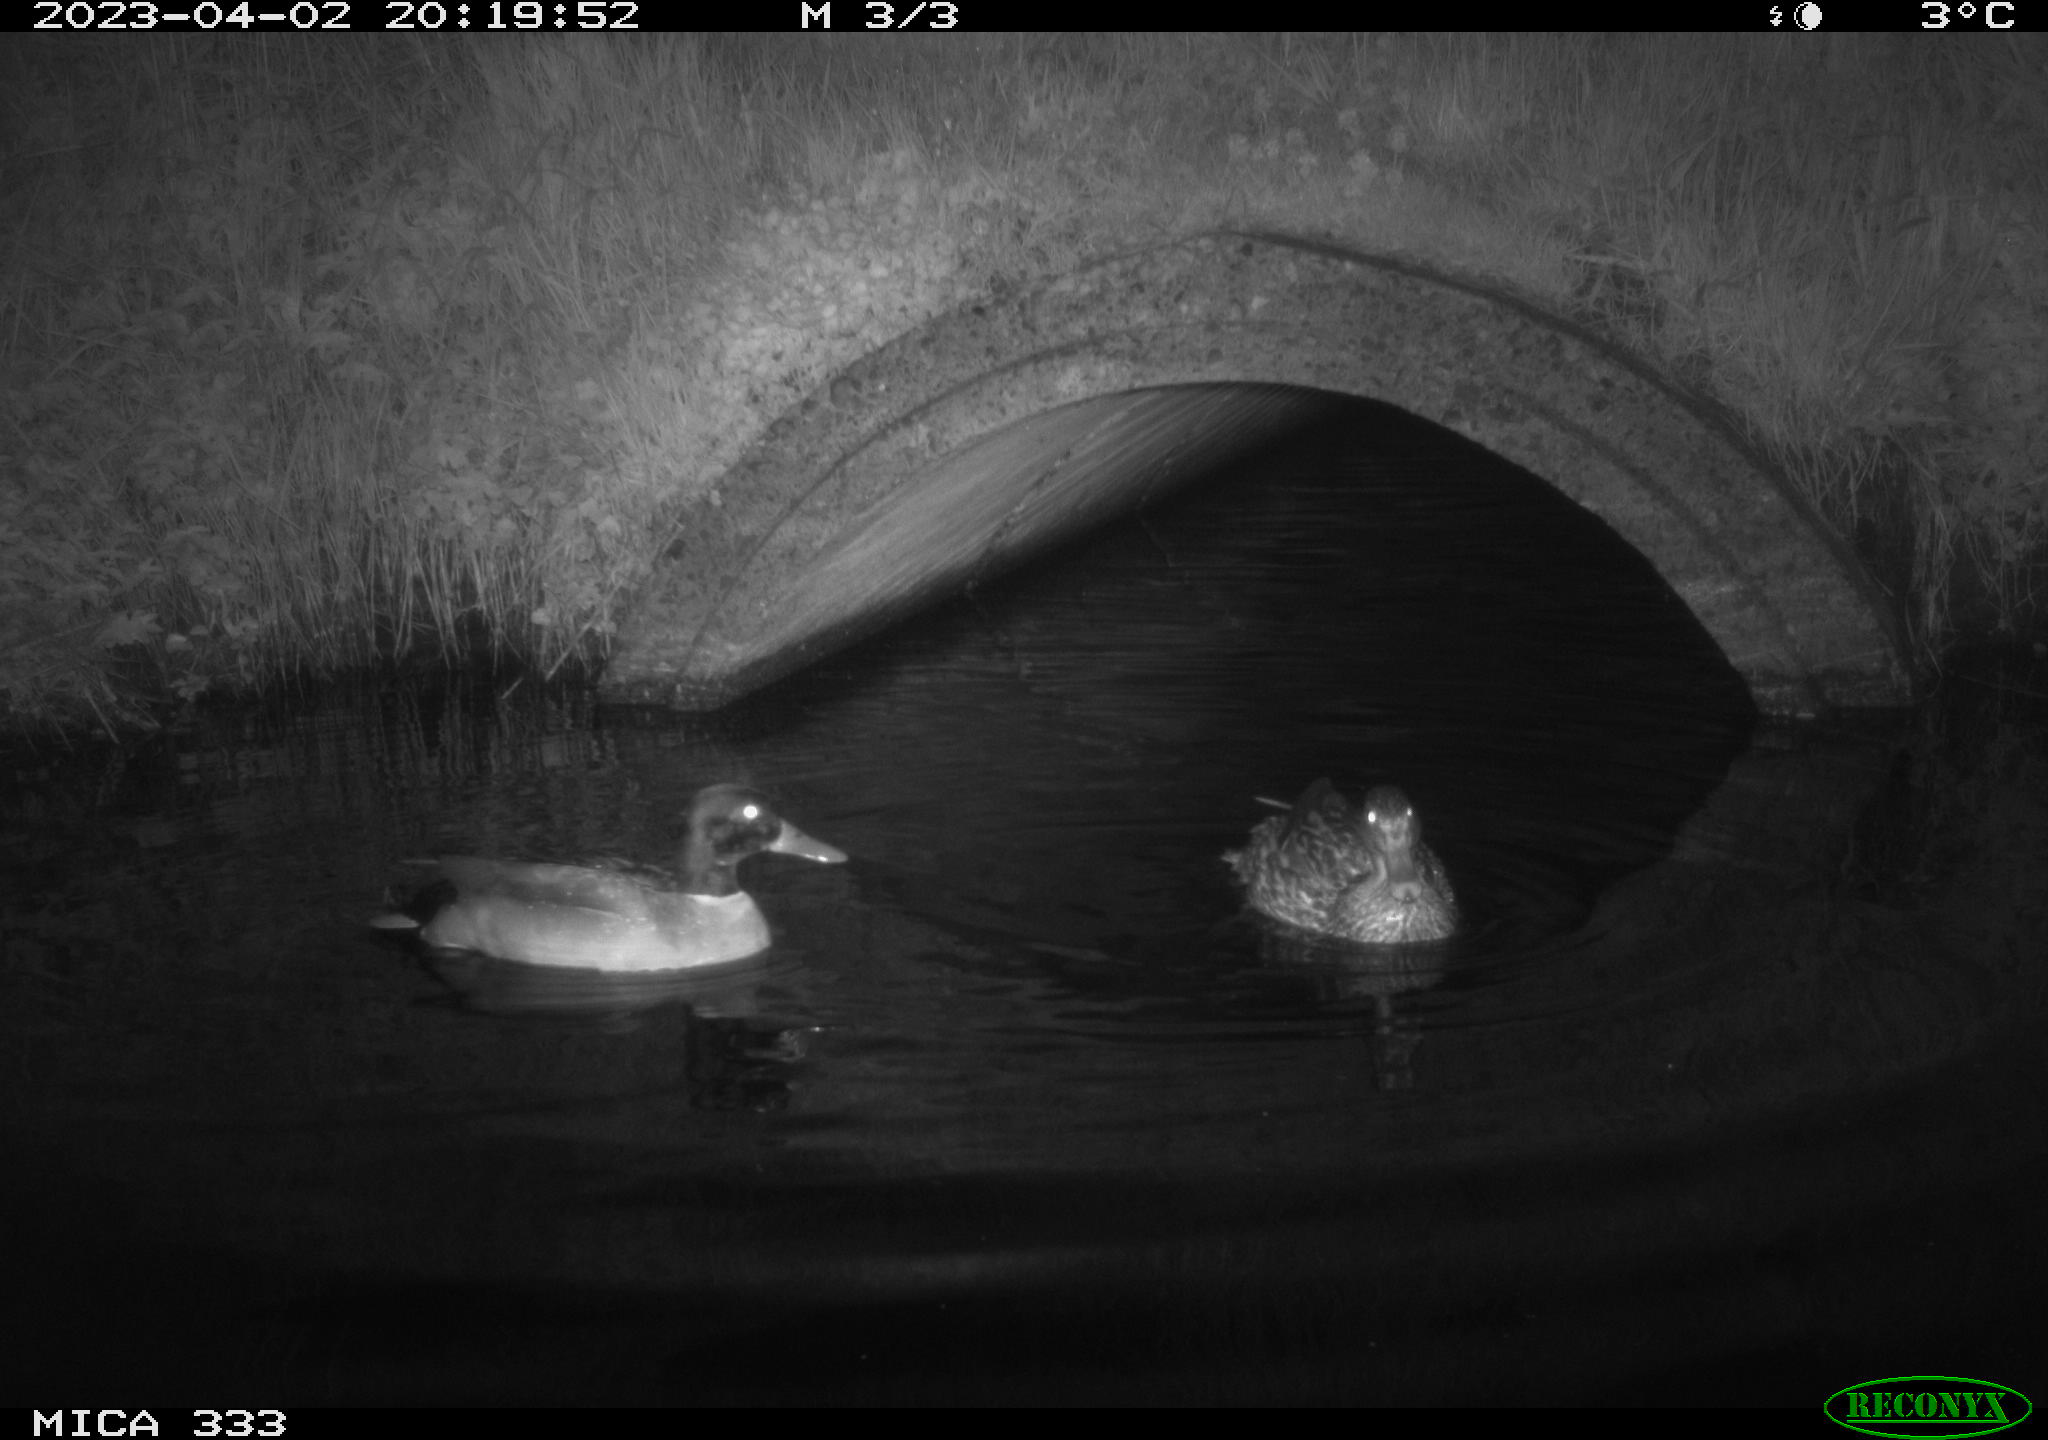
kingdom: Animalia
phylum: Chordata
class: Aves
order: Anseriformes
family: Anatidae
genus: Anas
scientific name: Anas
